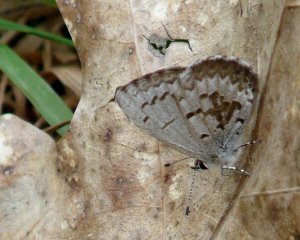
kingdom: Animalia
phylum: Arthropoda
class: Insecta
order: Lepidoptera
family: Lycaenidae
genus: Celastrina
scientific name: Celastrina lucia
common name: Northern Spring Azure
